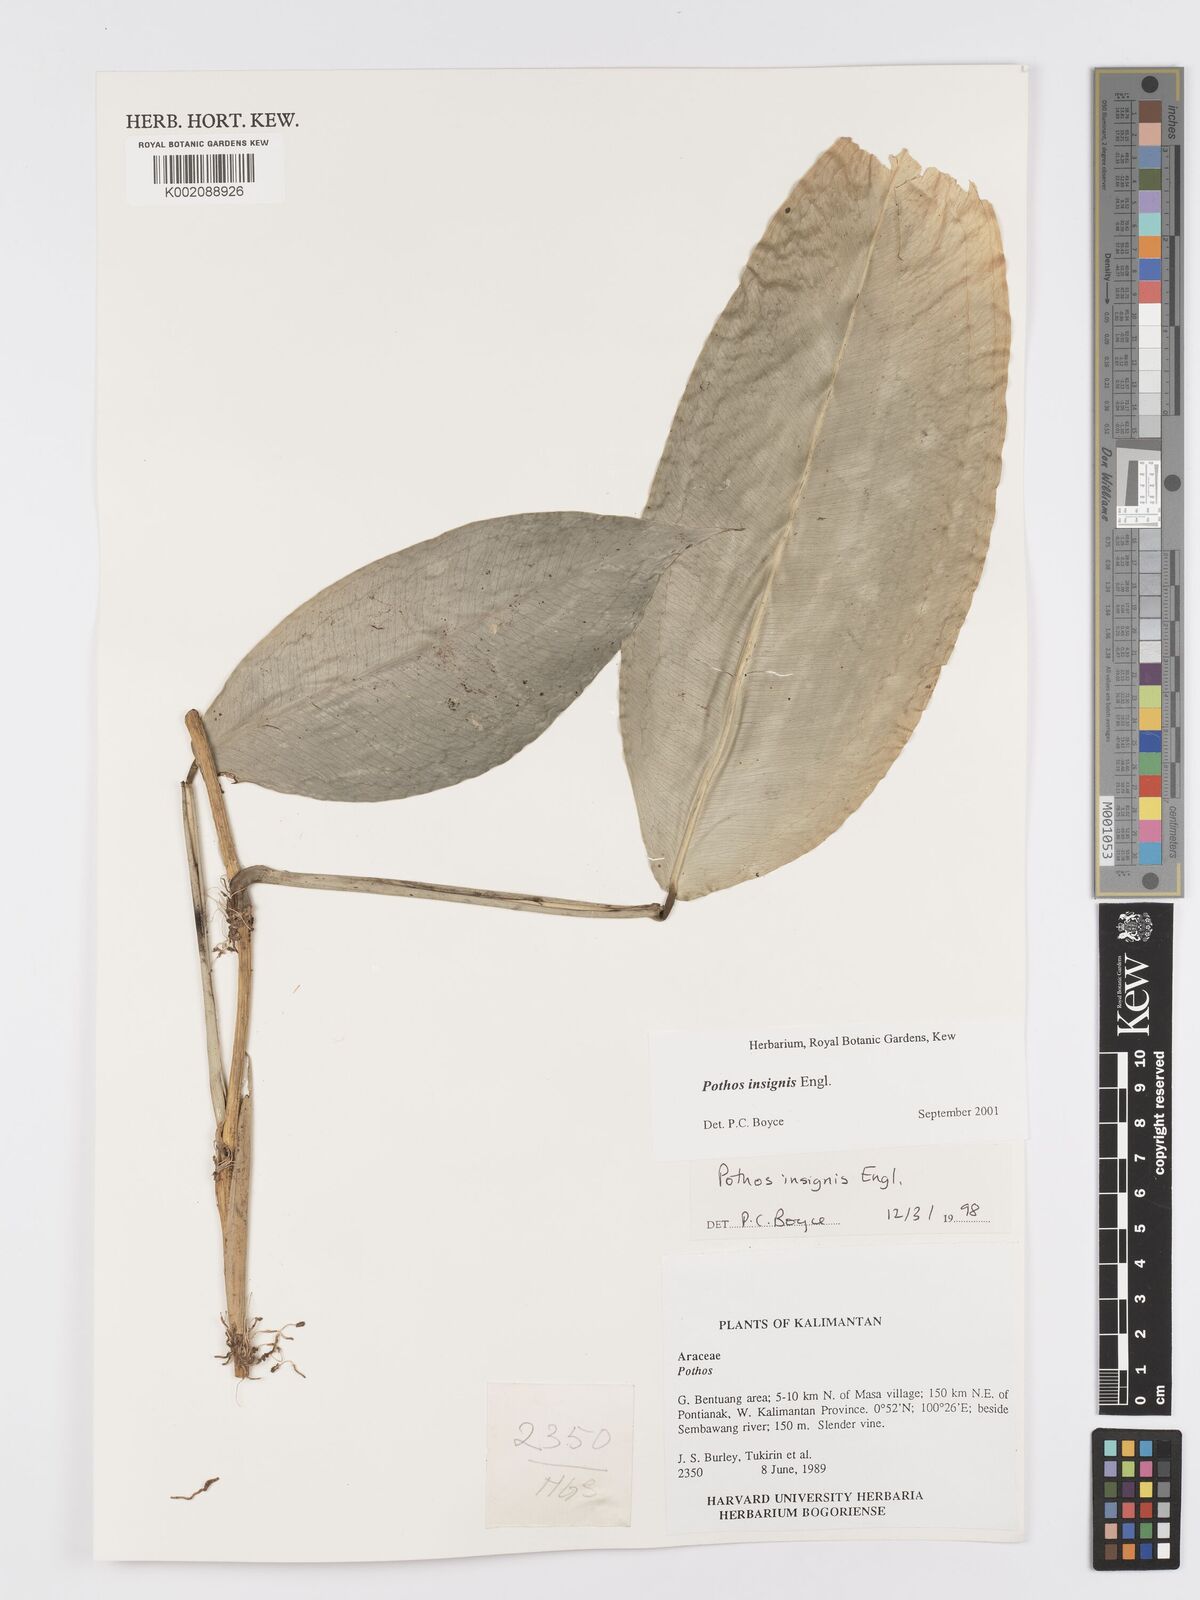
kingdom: Plantae
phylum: Tracheophyta
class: Liliopsida
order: Alismatales
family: Araceae
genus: Pothos
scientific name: Pothos insignis
